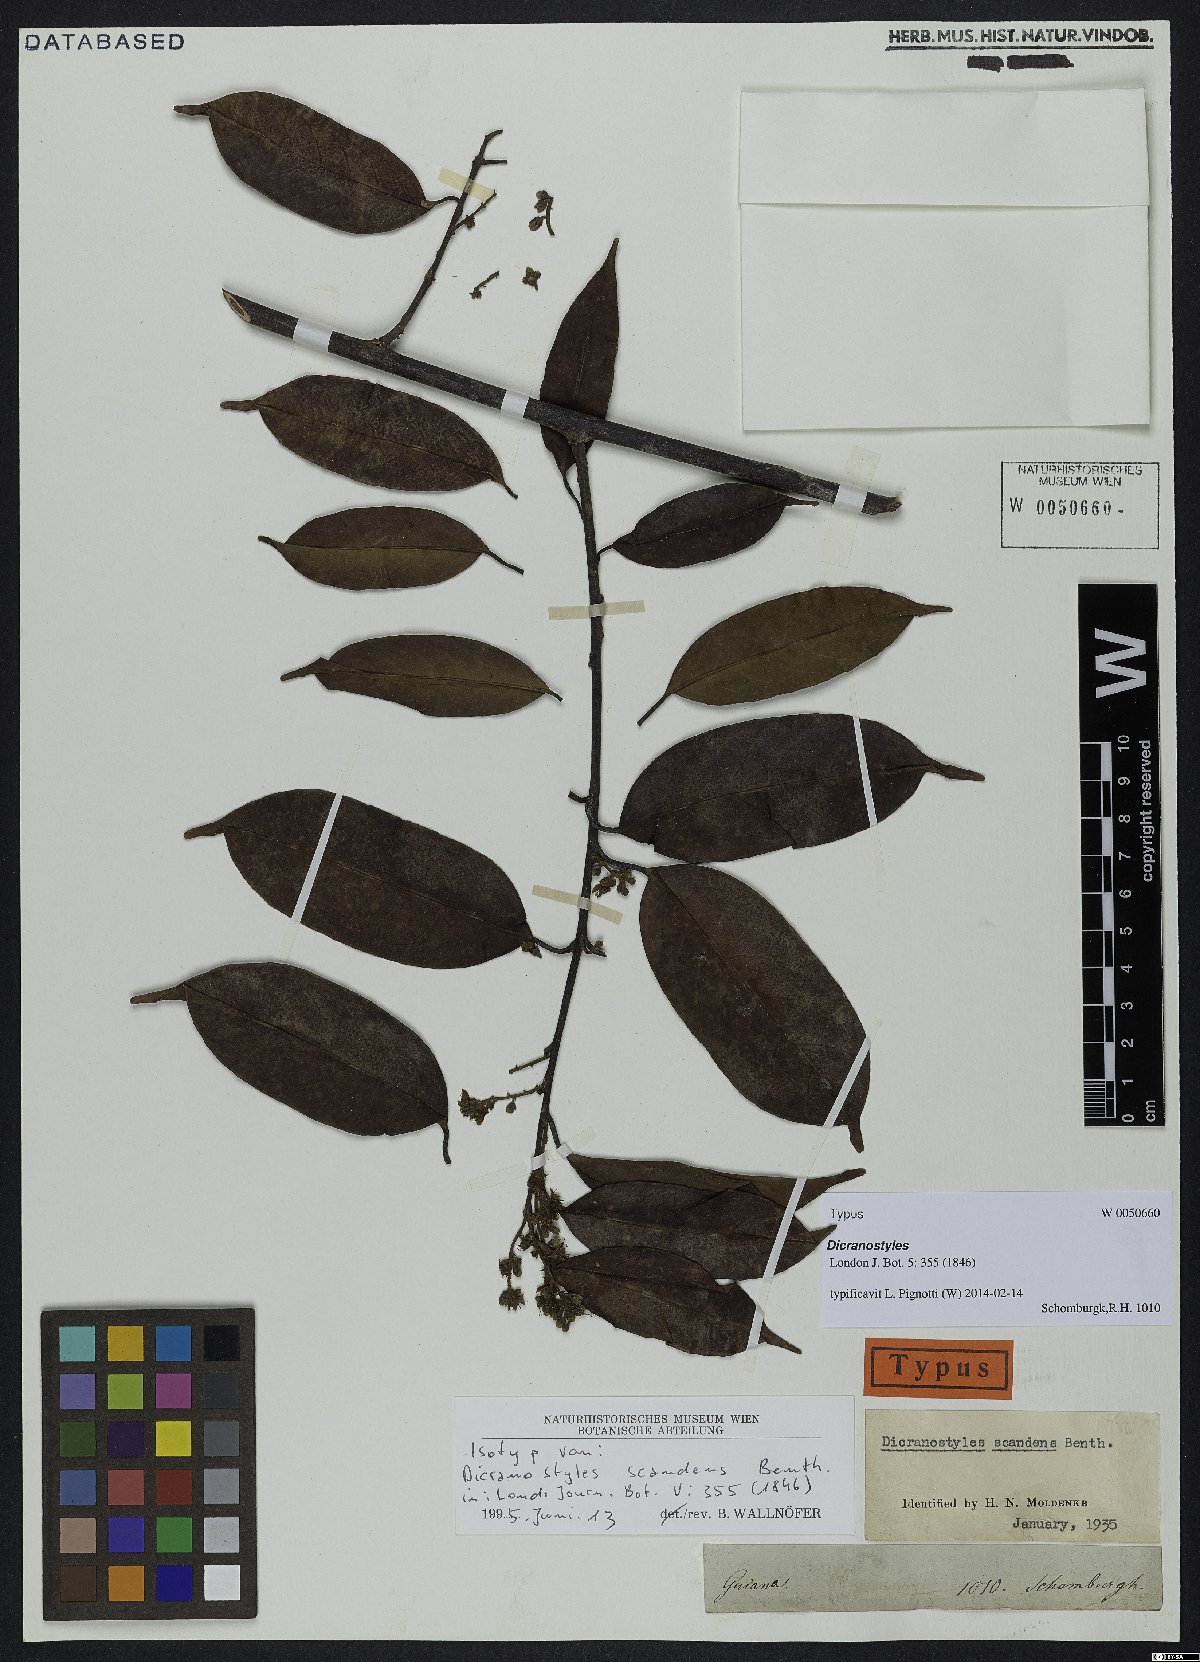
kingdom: Plantae
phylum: Tracheophyta
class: Magnoliopsida
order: Solanales
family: Convolvulaceae
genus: Dicranostyles
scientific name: Dicranostyles scandens
